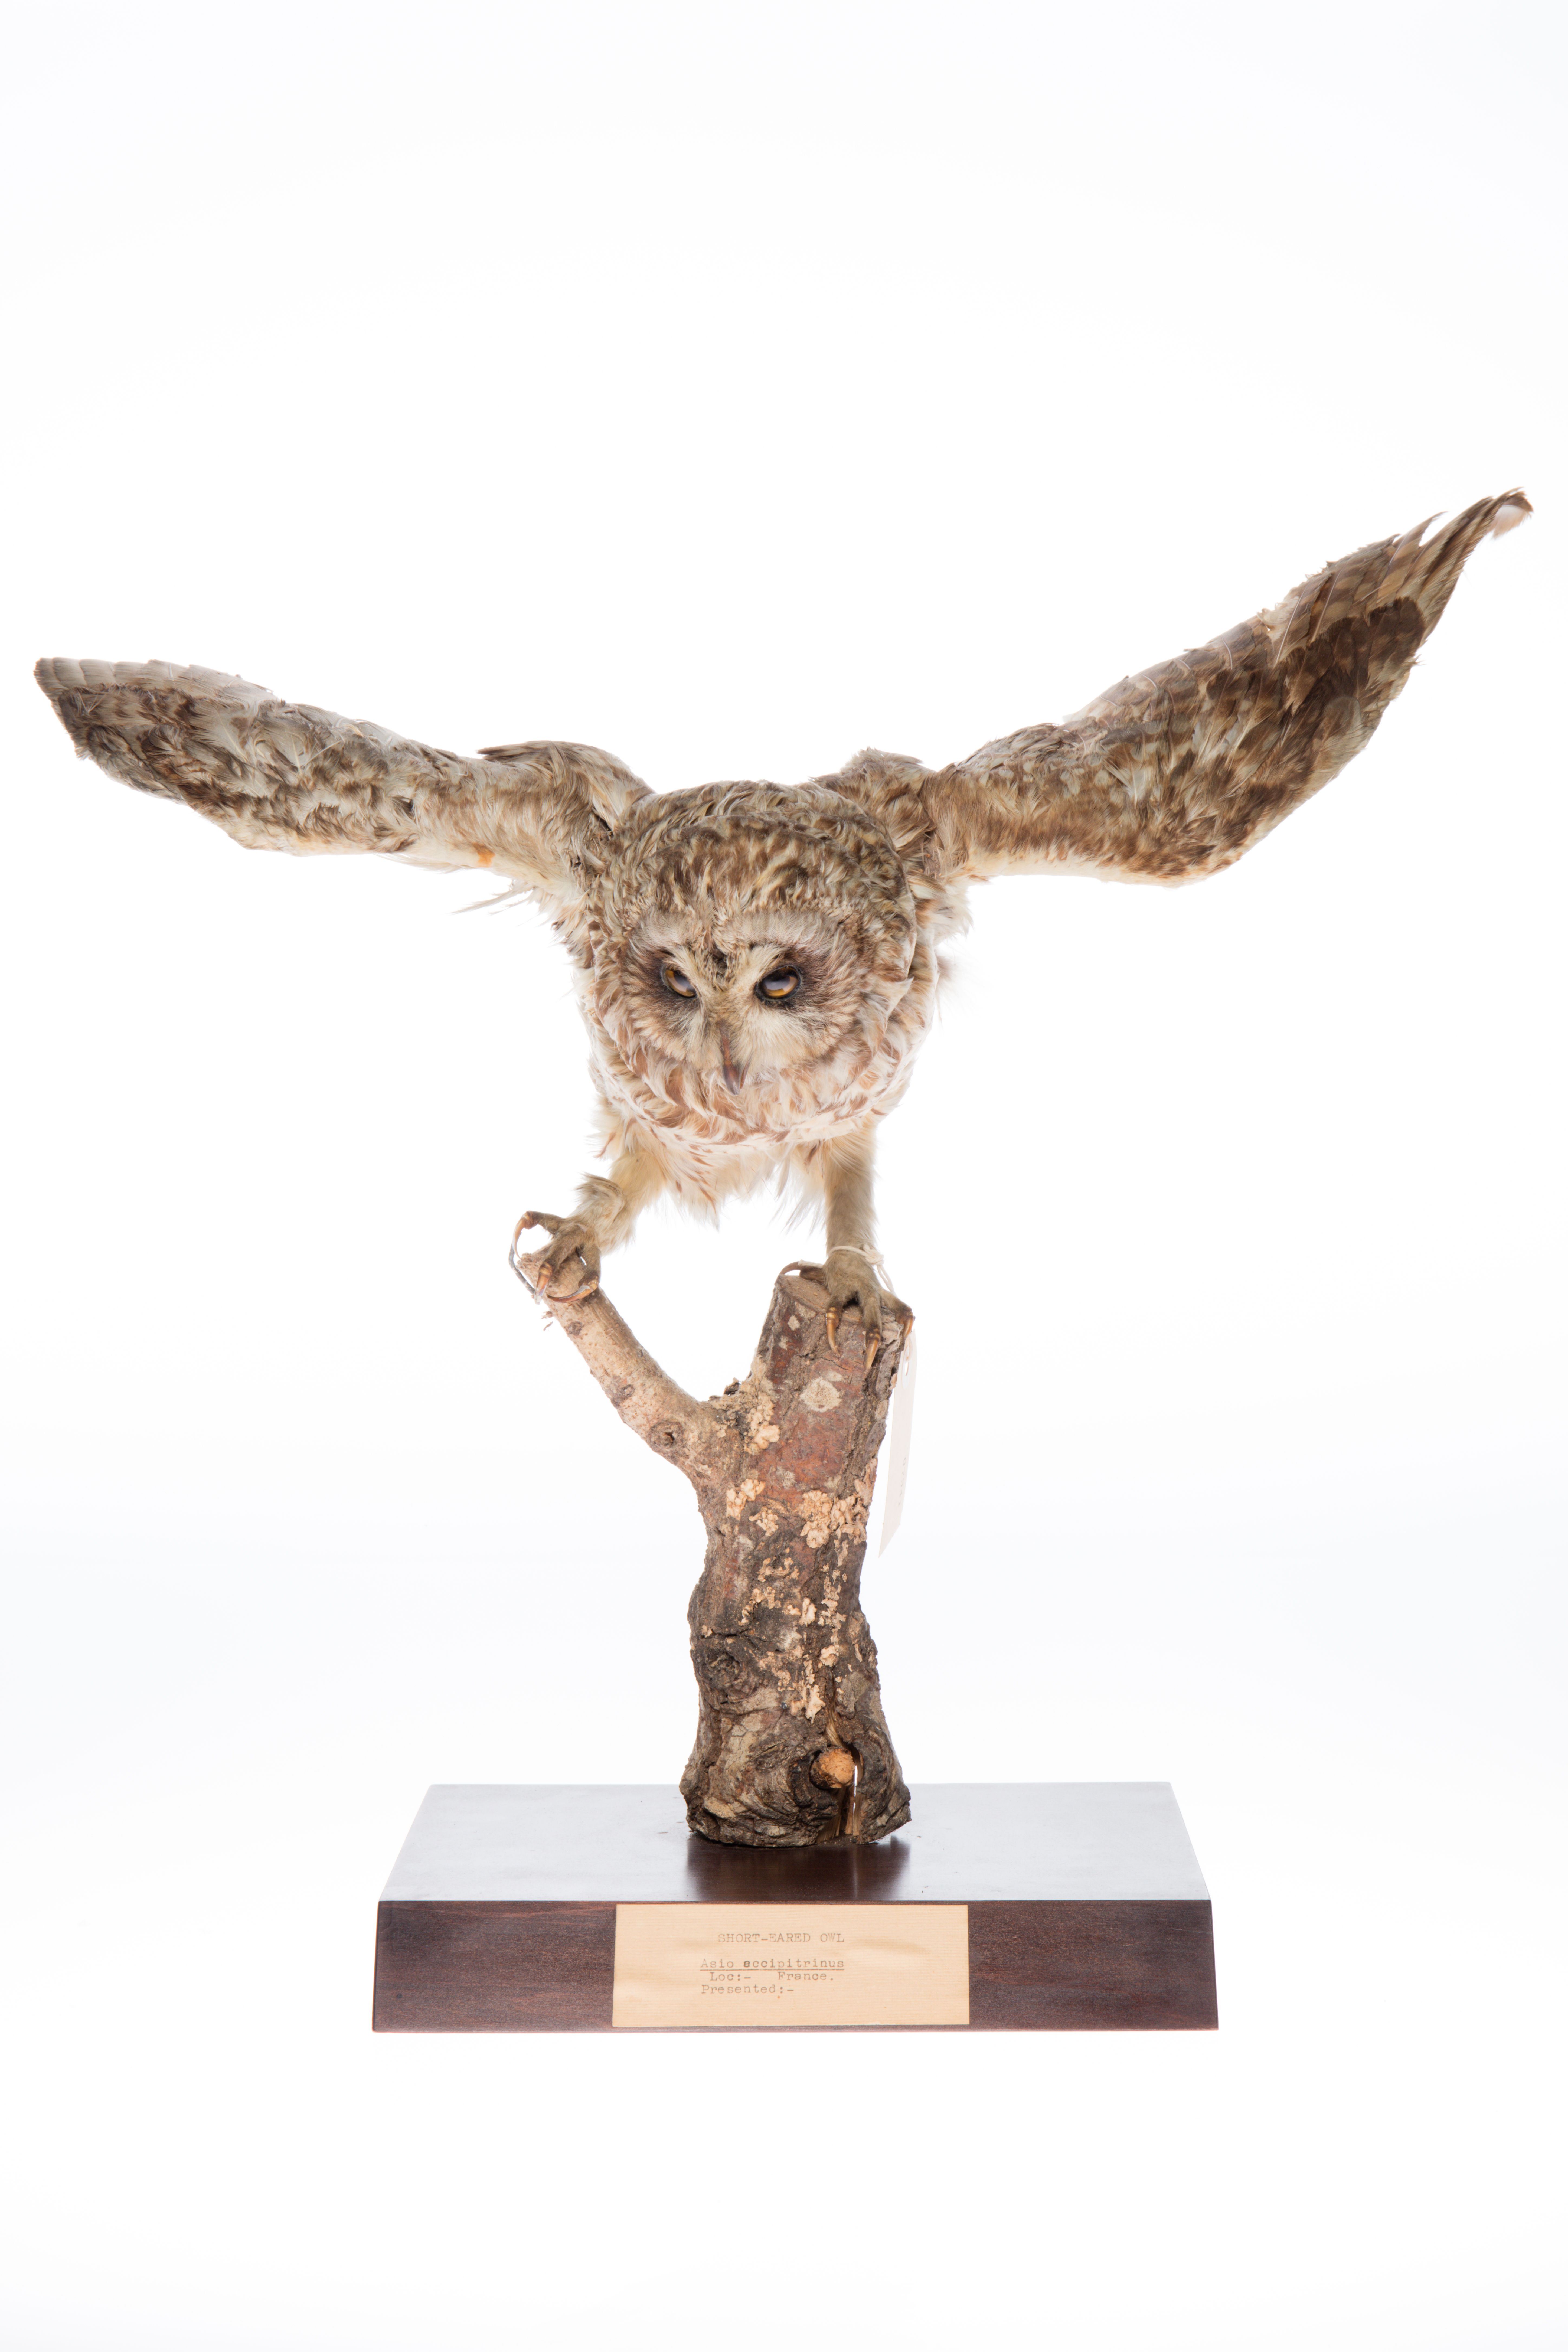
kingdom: Animalia
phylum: Chordata
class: Aves
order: Strigiformes
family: Strigidae
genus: Asio
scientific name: Asio flammeus
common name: Short-eared owl
